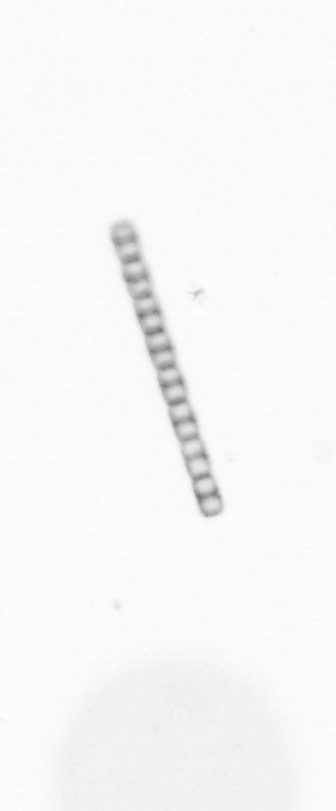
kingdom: Chromista
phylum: Ochrophyta
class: Bacillariophyceae
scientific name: Bacillariophyceae
